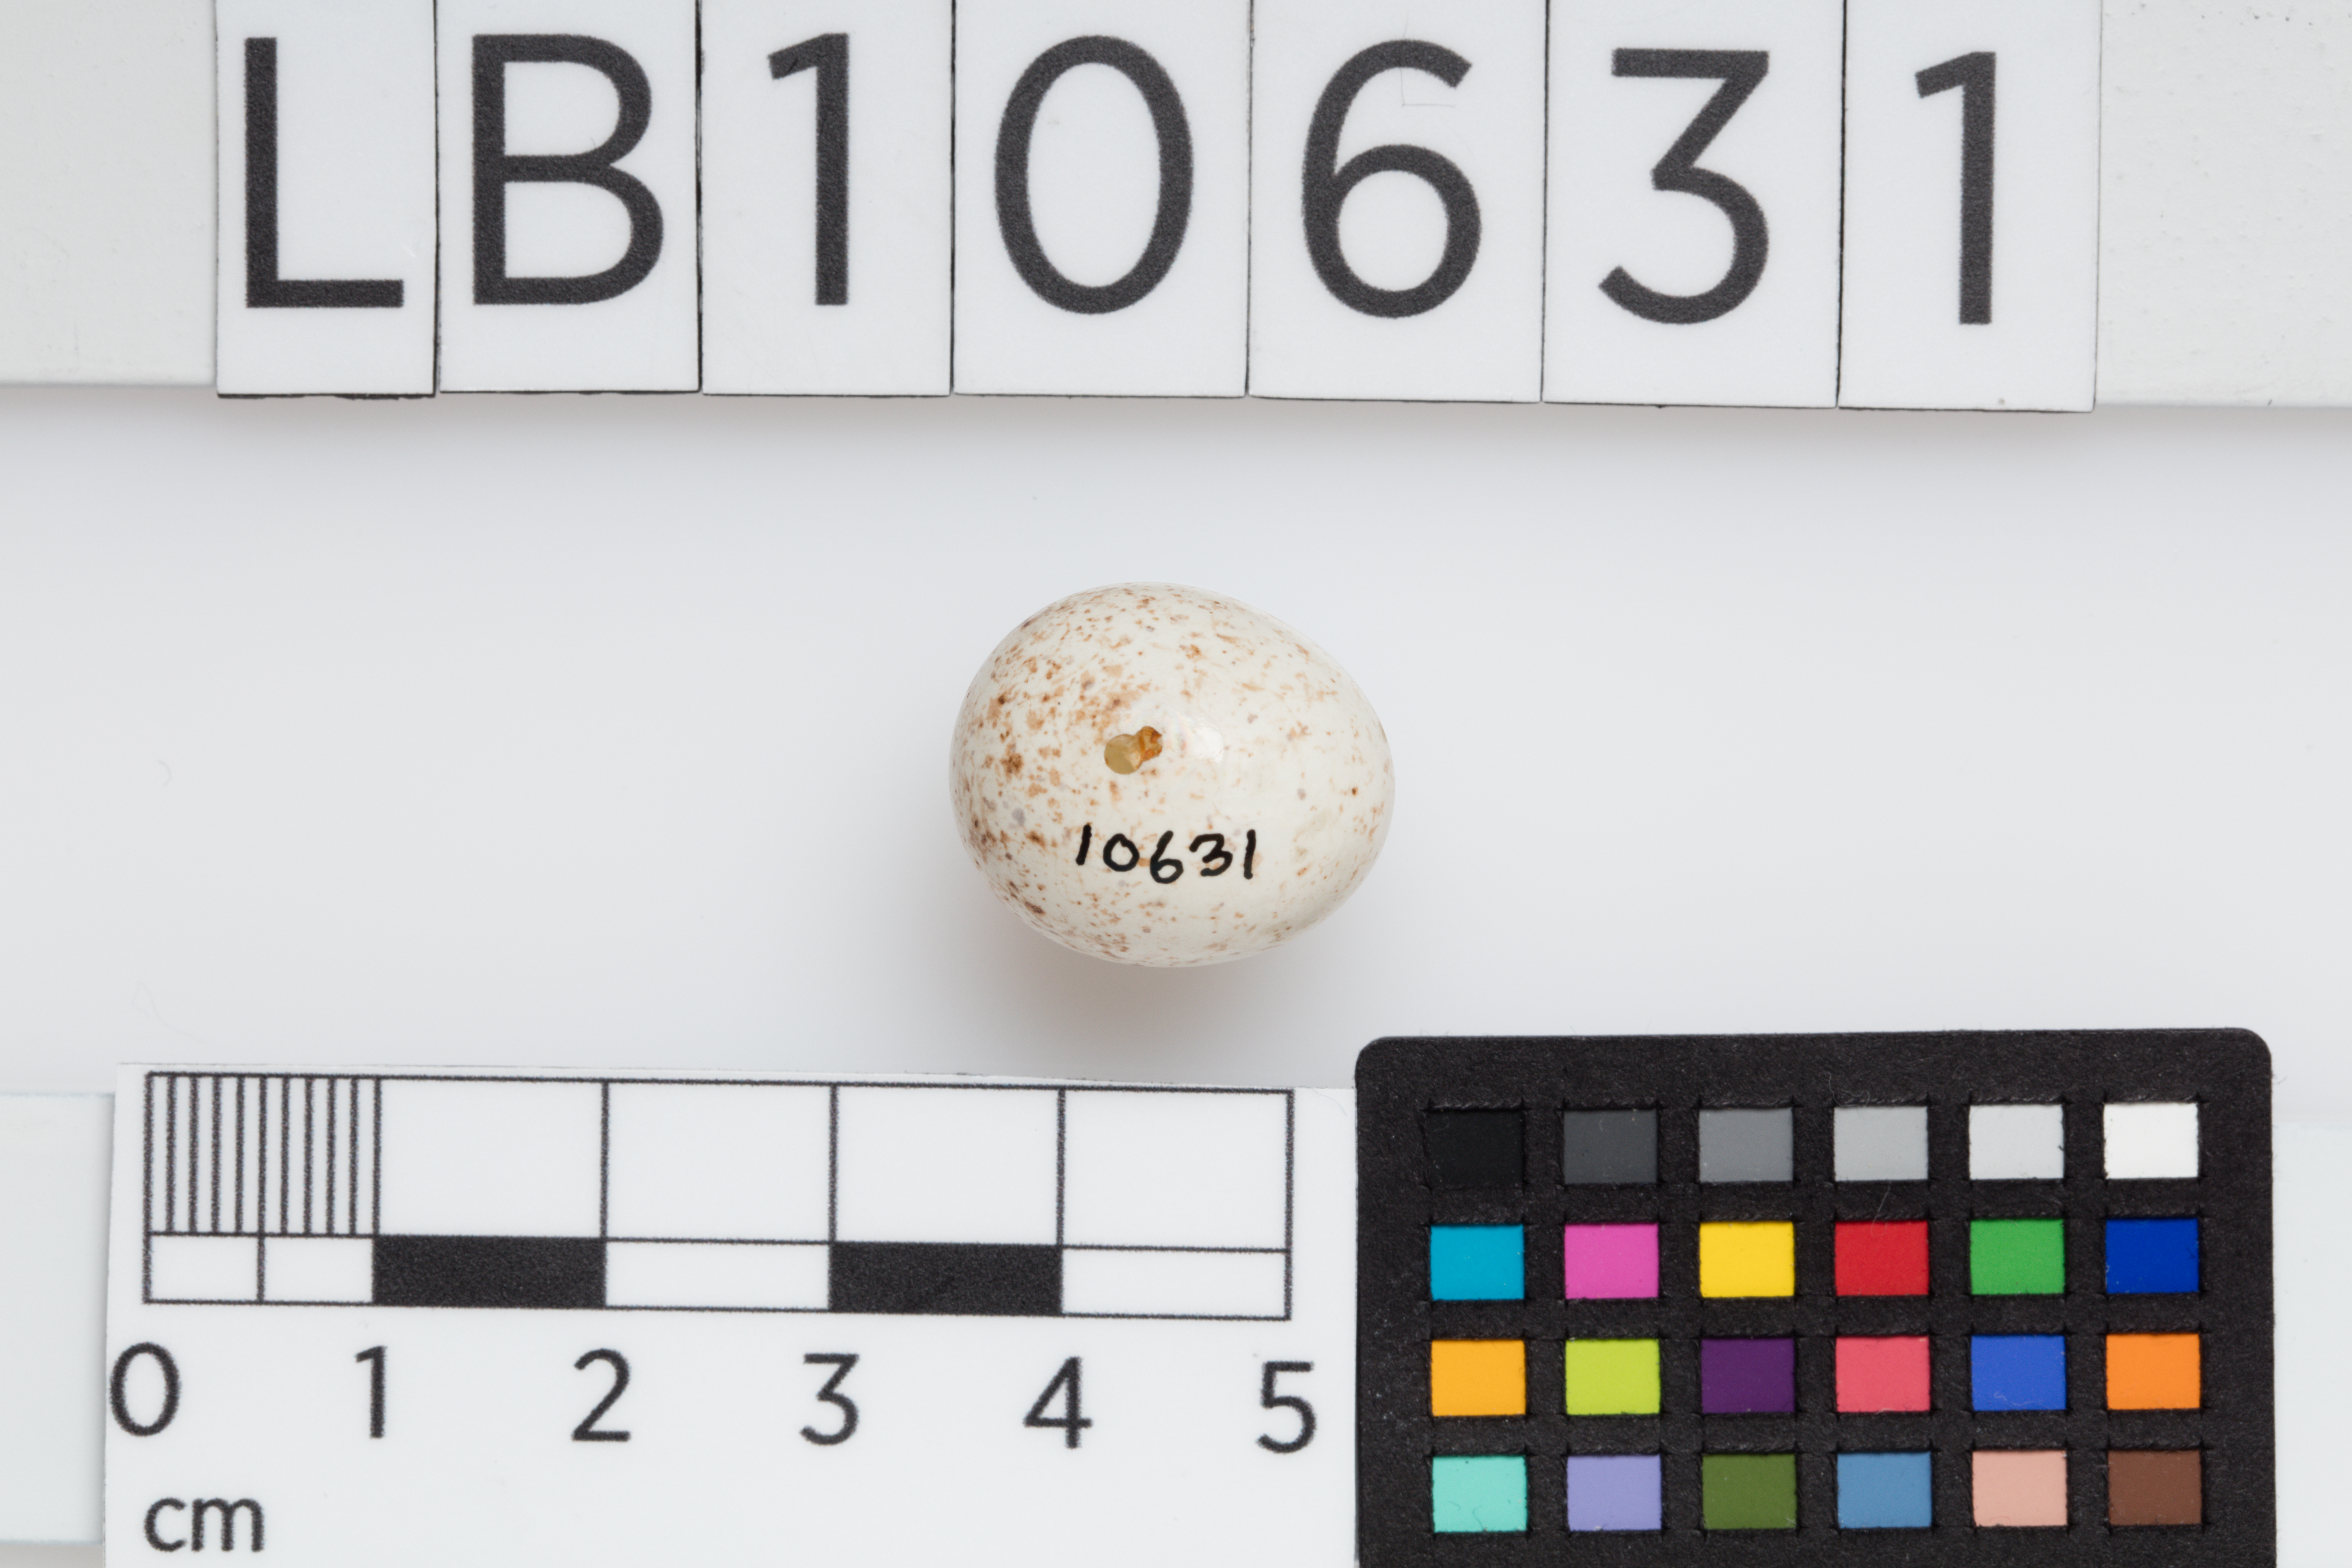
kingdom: Animalia
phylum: Chordata
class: Aves
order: Passeriformes
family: Passeridae
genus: Passer
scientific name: Passer domesticus
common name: House sparrow
